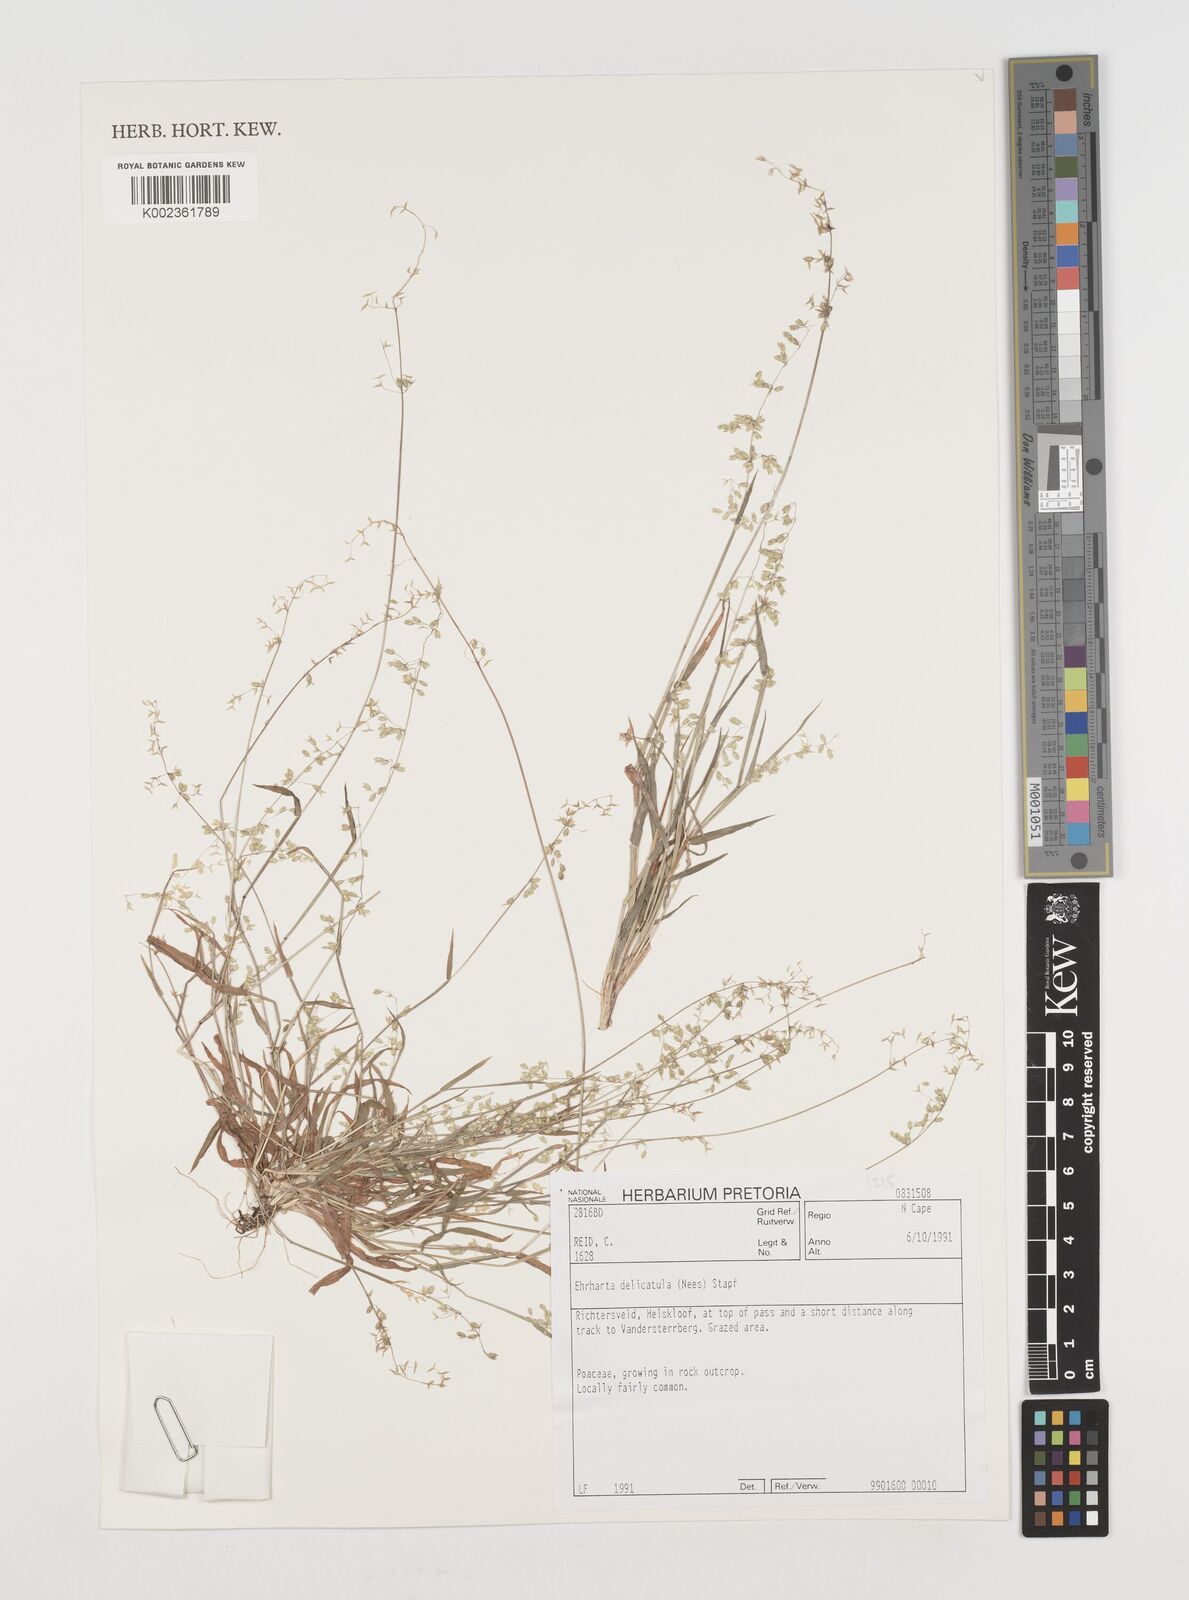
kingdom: Plantae
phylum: Tracheophyta
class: Liliopsida
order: Poales
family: Poaceae
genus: Ehrharta
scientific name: Ehrharta delicatula
